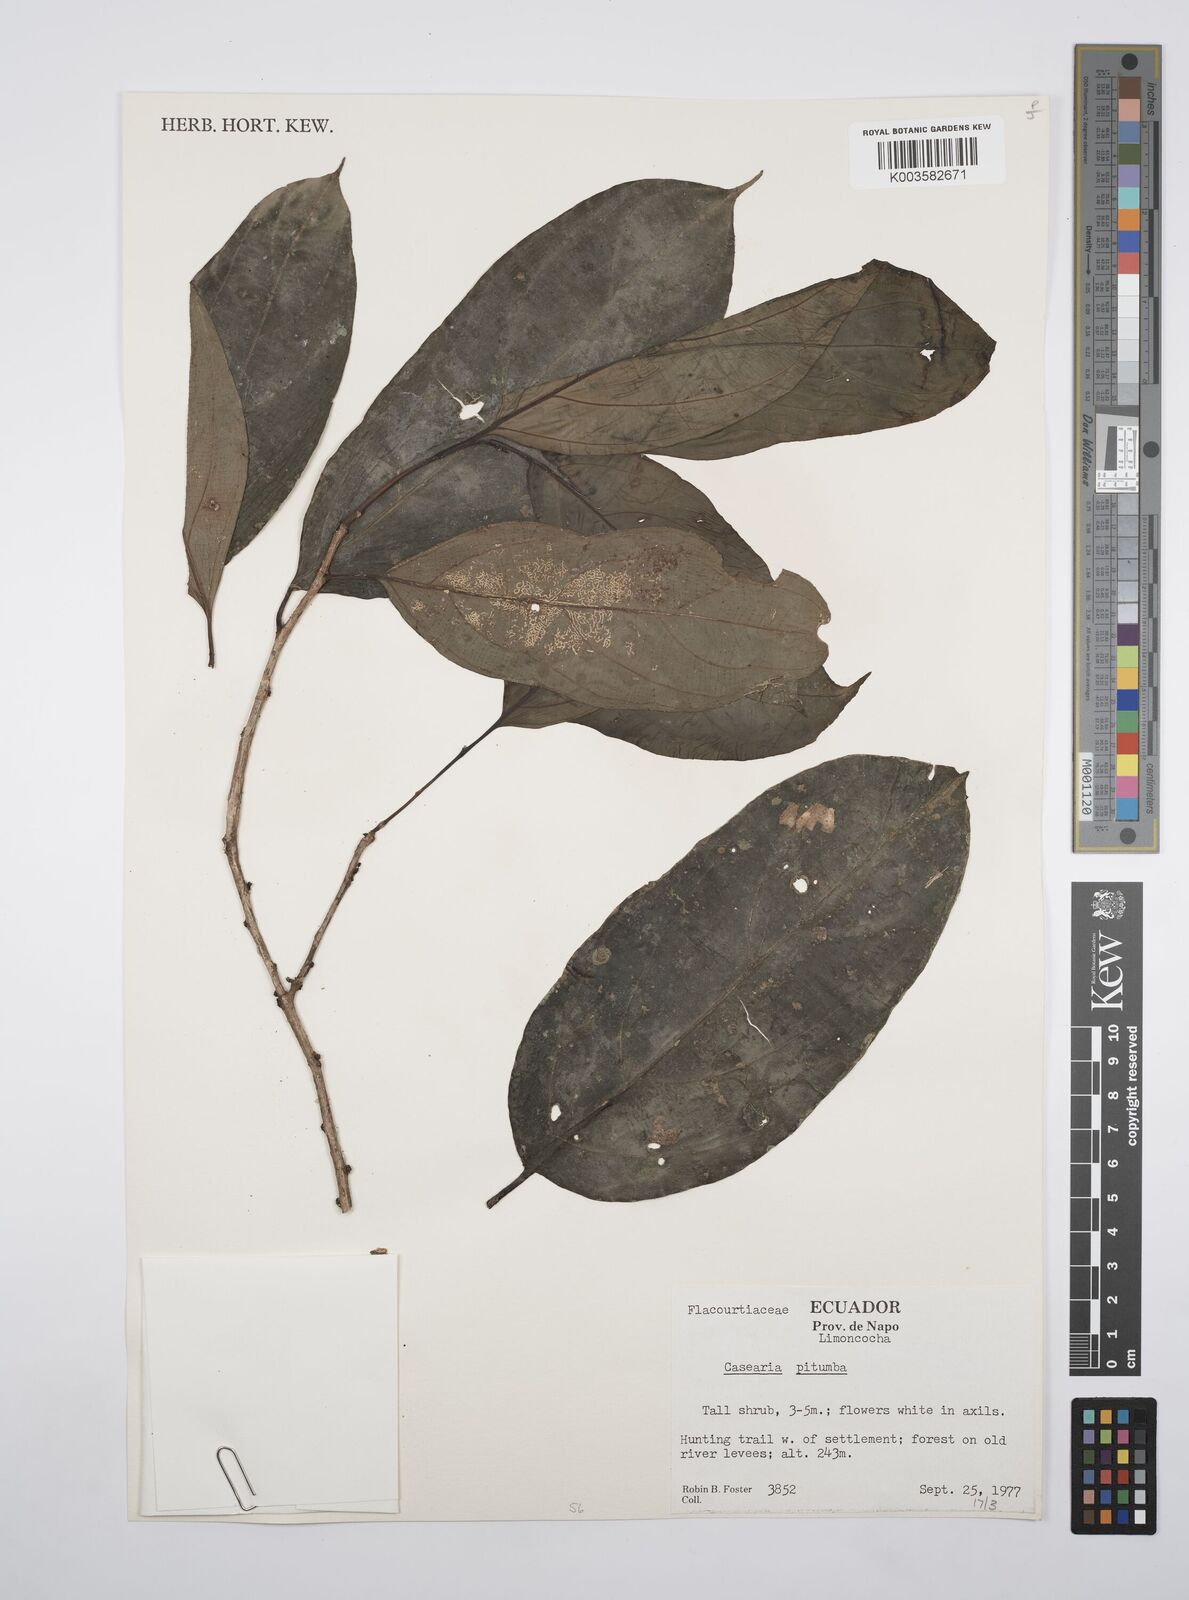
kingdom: Plantae
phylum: Tracheophyta
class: Magnoliopsida
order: Malpighiales
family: Salicaceae
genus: Casearia
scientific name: Casearia pitumba
